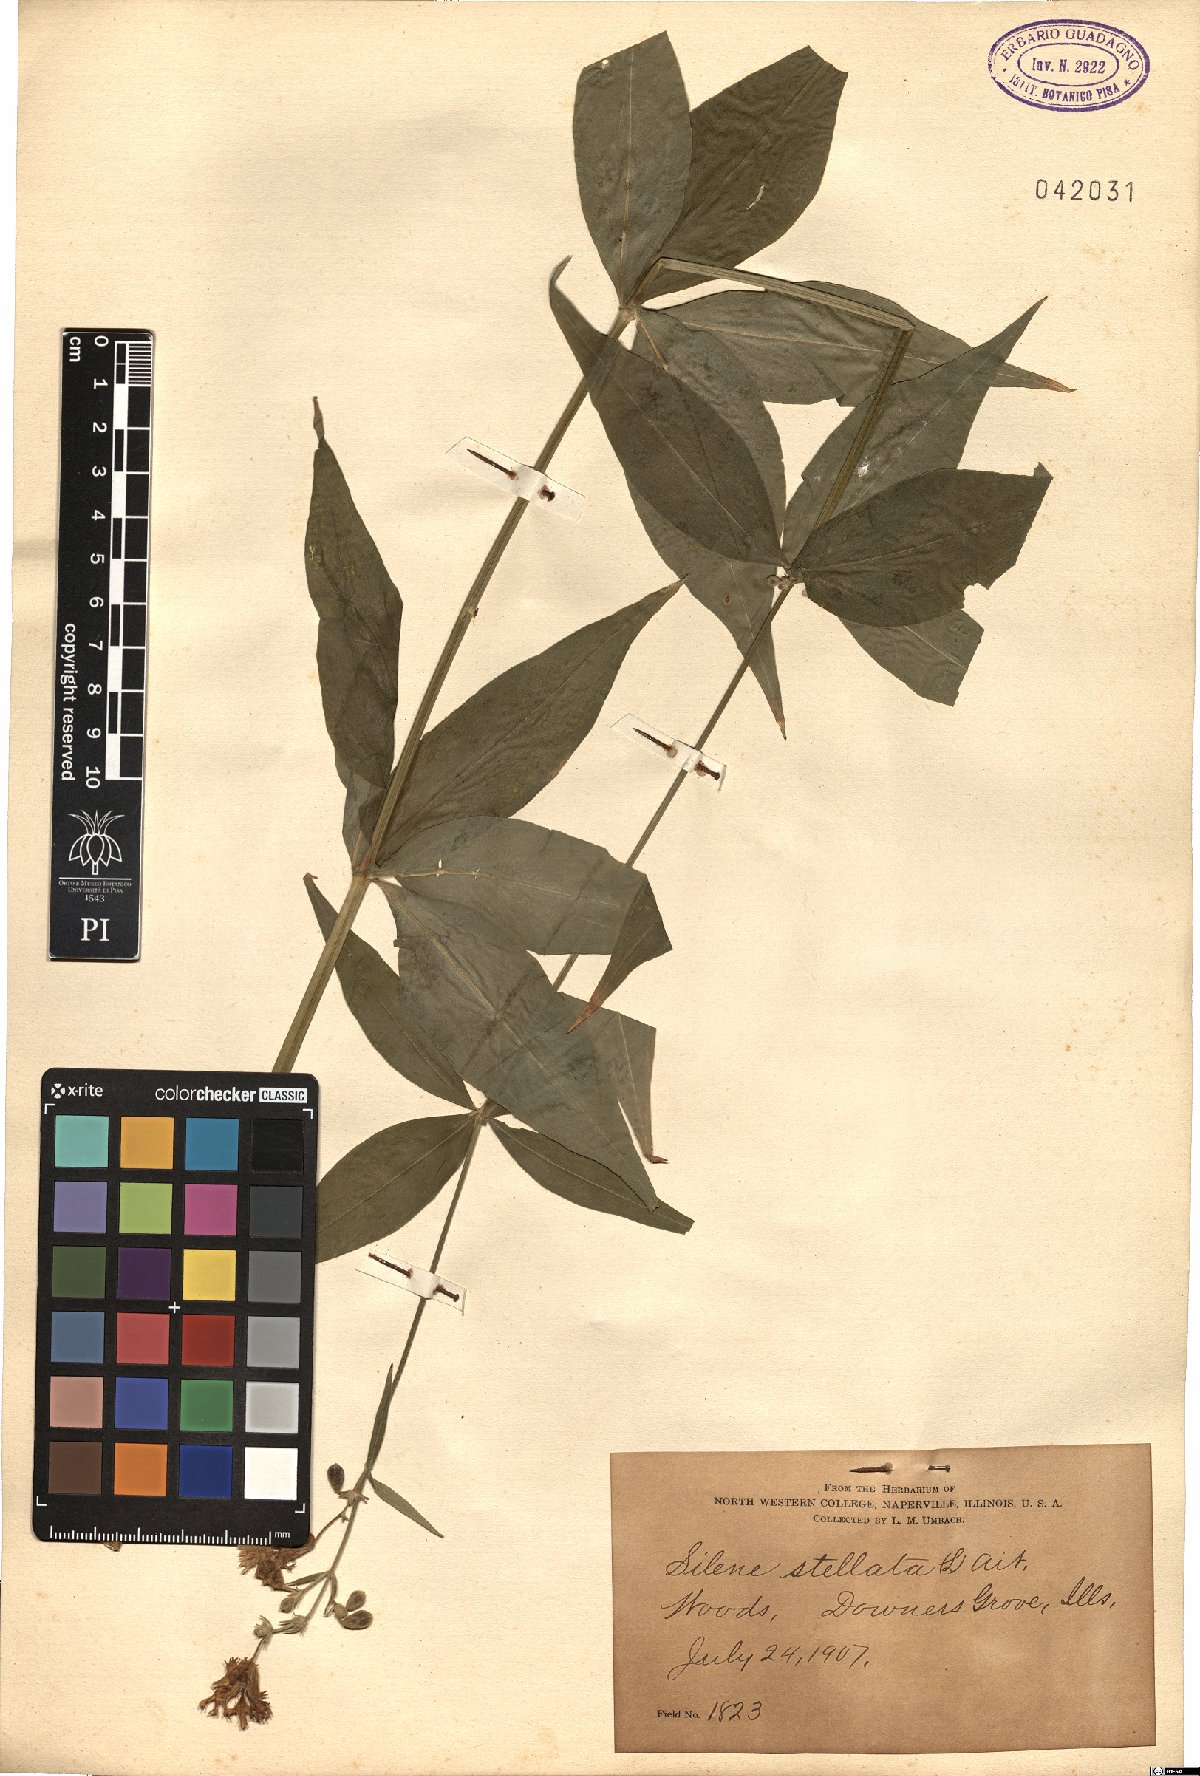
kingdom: Plantae
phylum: Tracheophyta
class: Magnoliopsida
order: Caryophyllales
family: Caryophyllaceae
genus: Silene
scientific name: Silene stellata
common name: Starry campion
